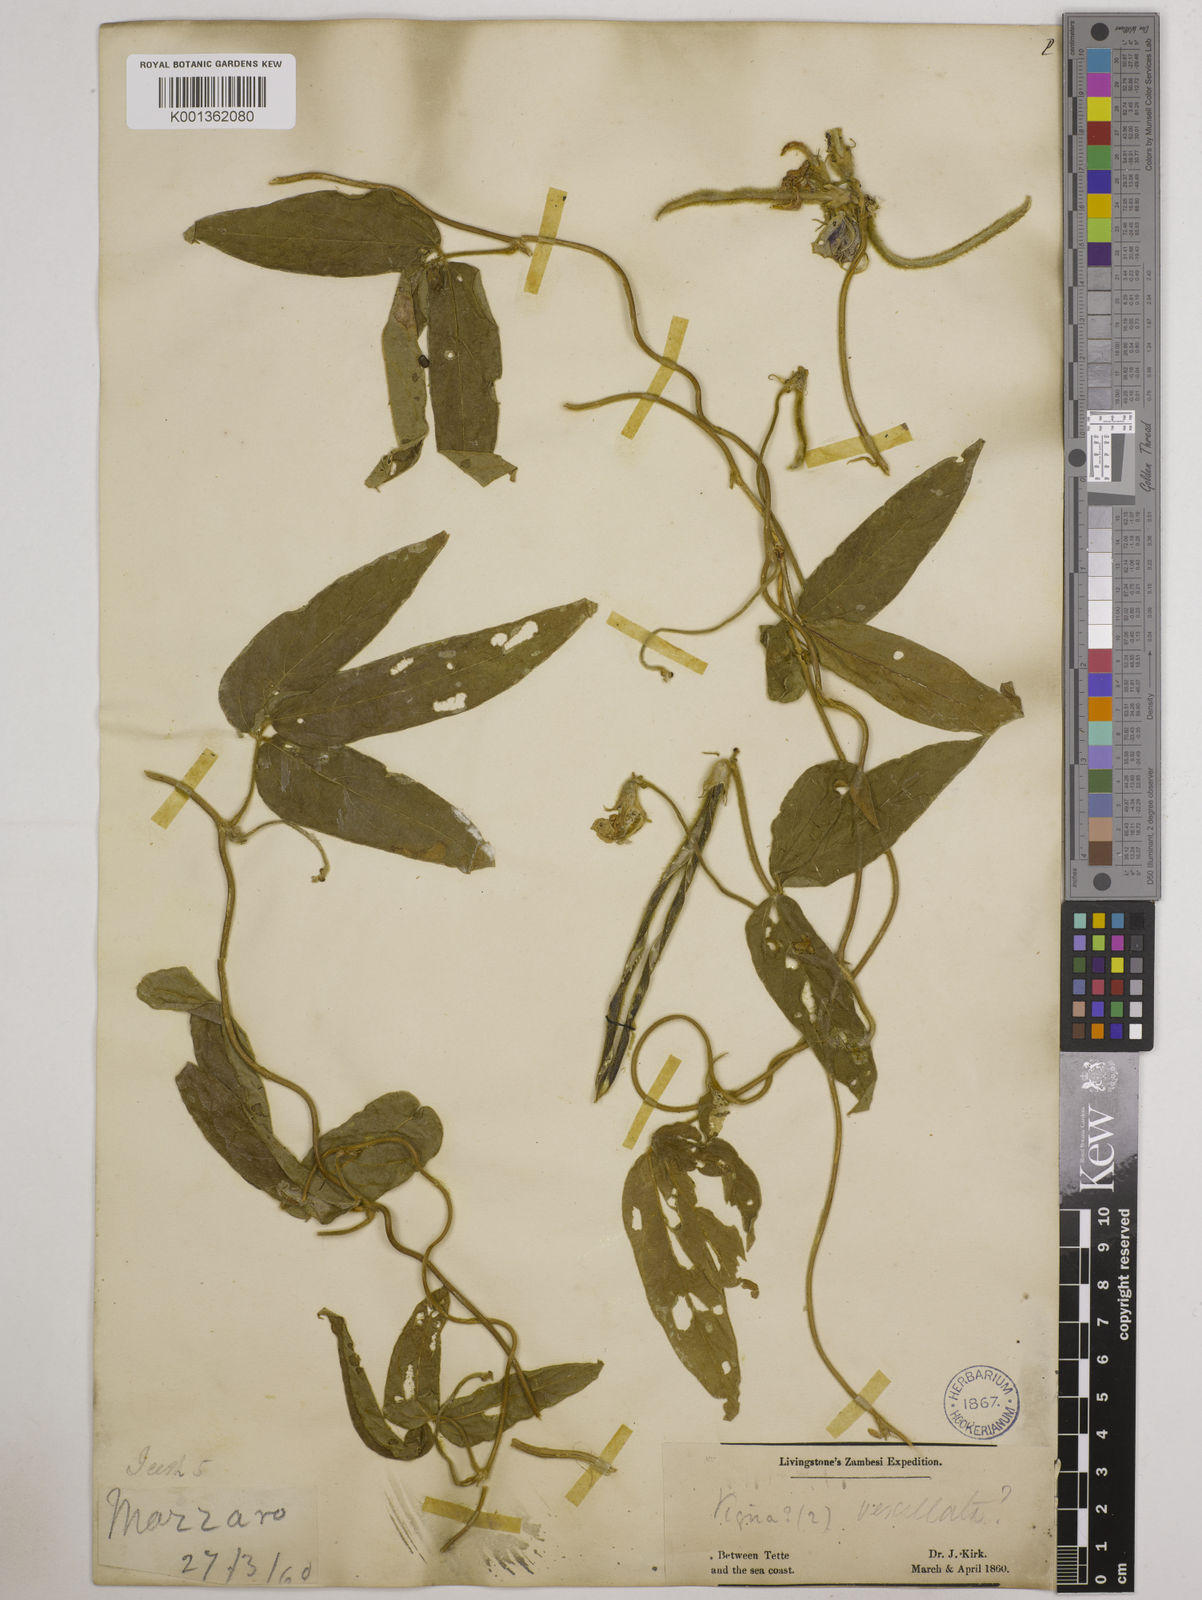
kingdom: Plantae
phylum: Tracheophyta
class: Magnoliopsida
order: Fabales
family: Fabaceae
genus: Vigna
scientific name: Vigna vexillata
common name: Zombi pea
